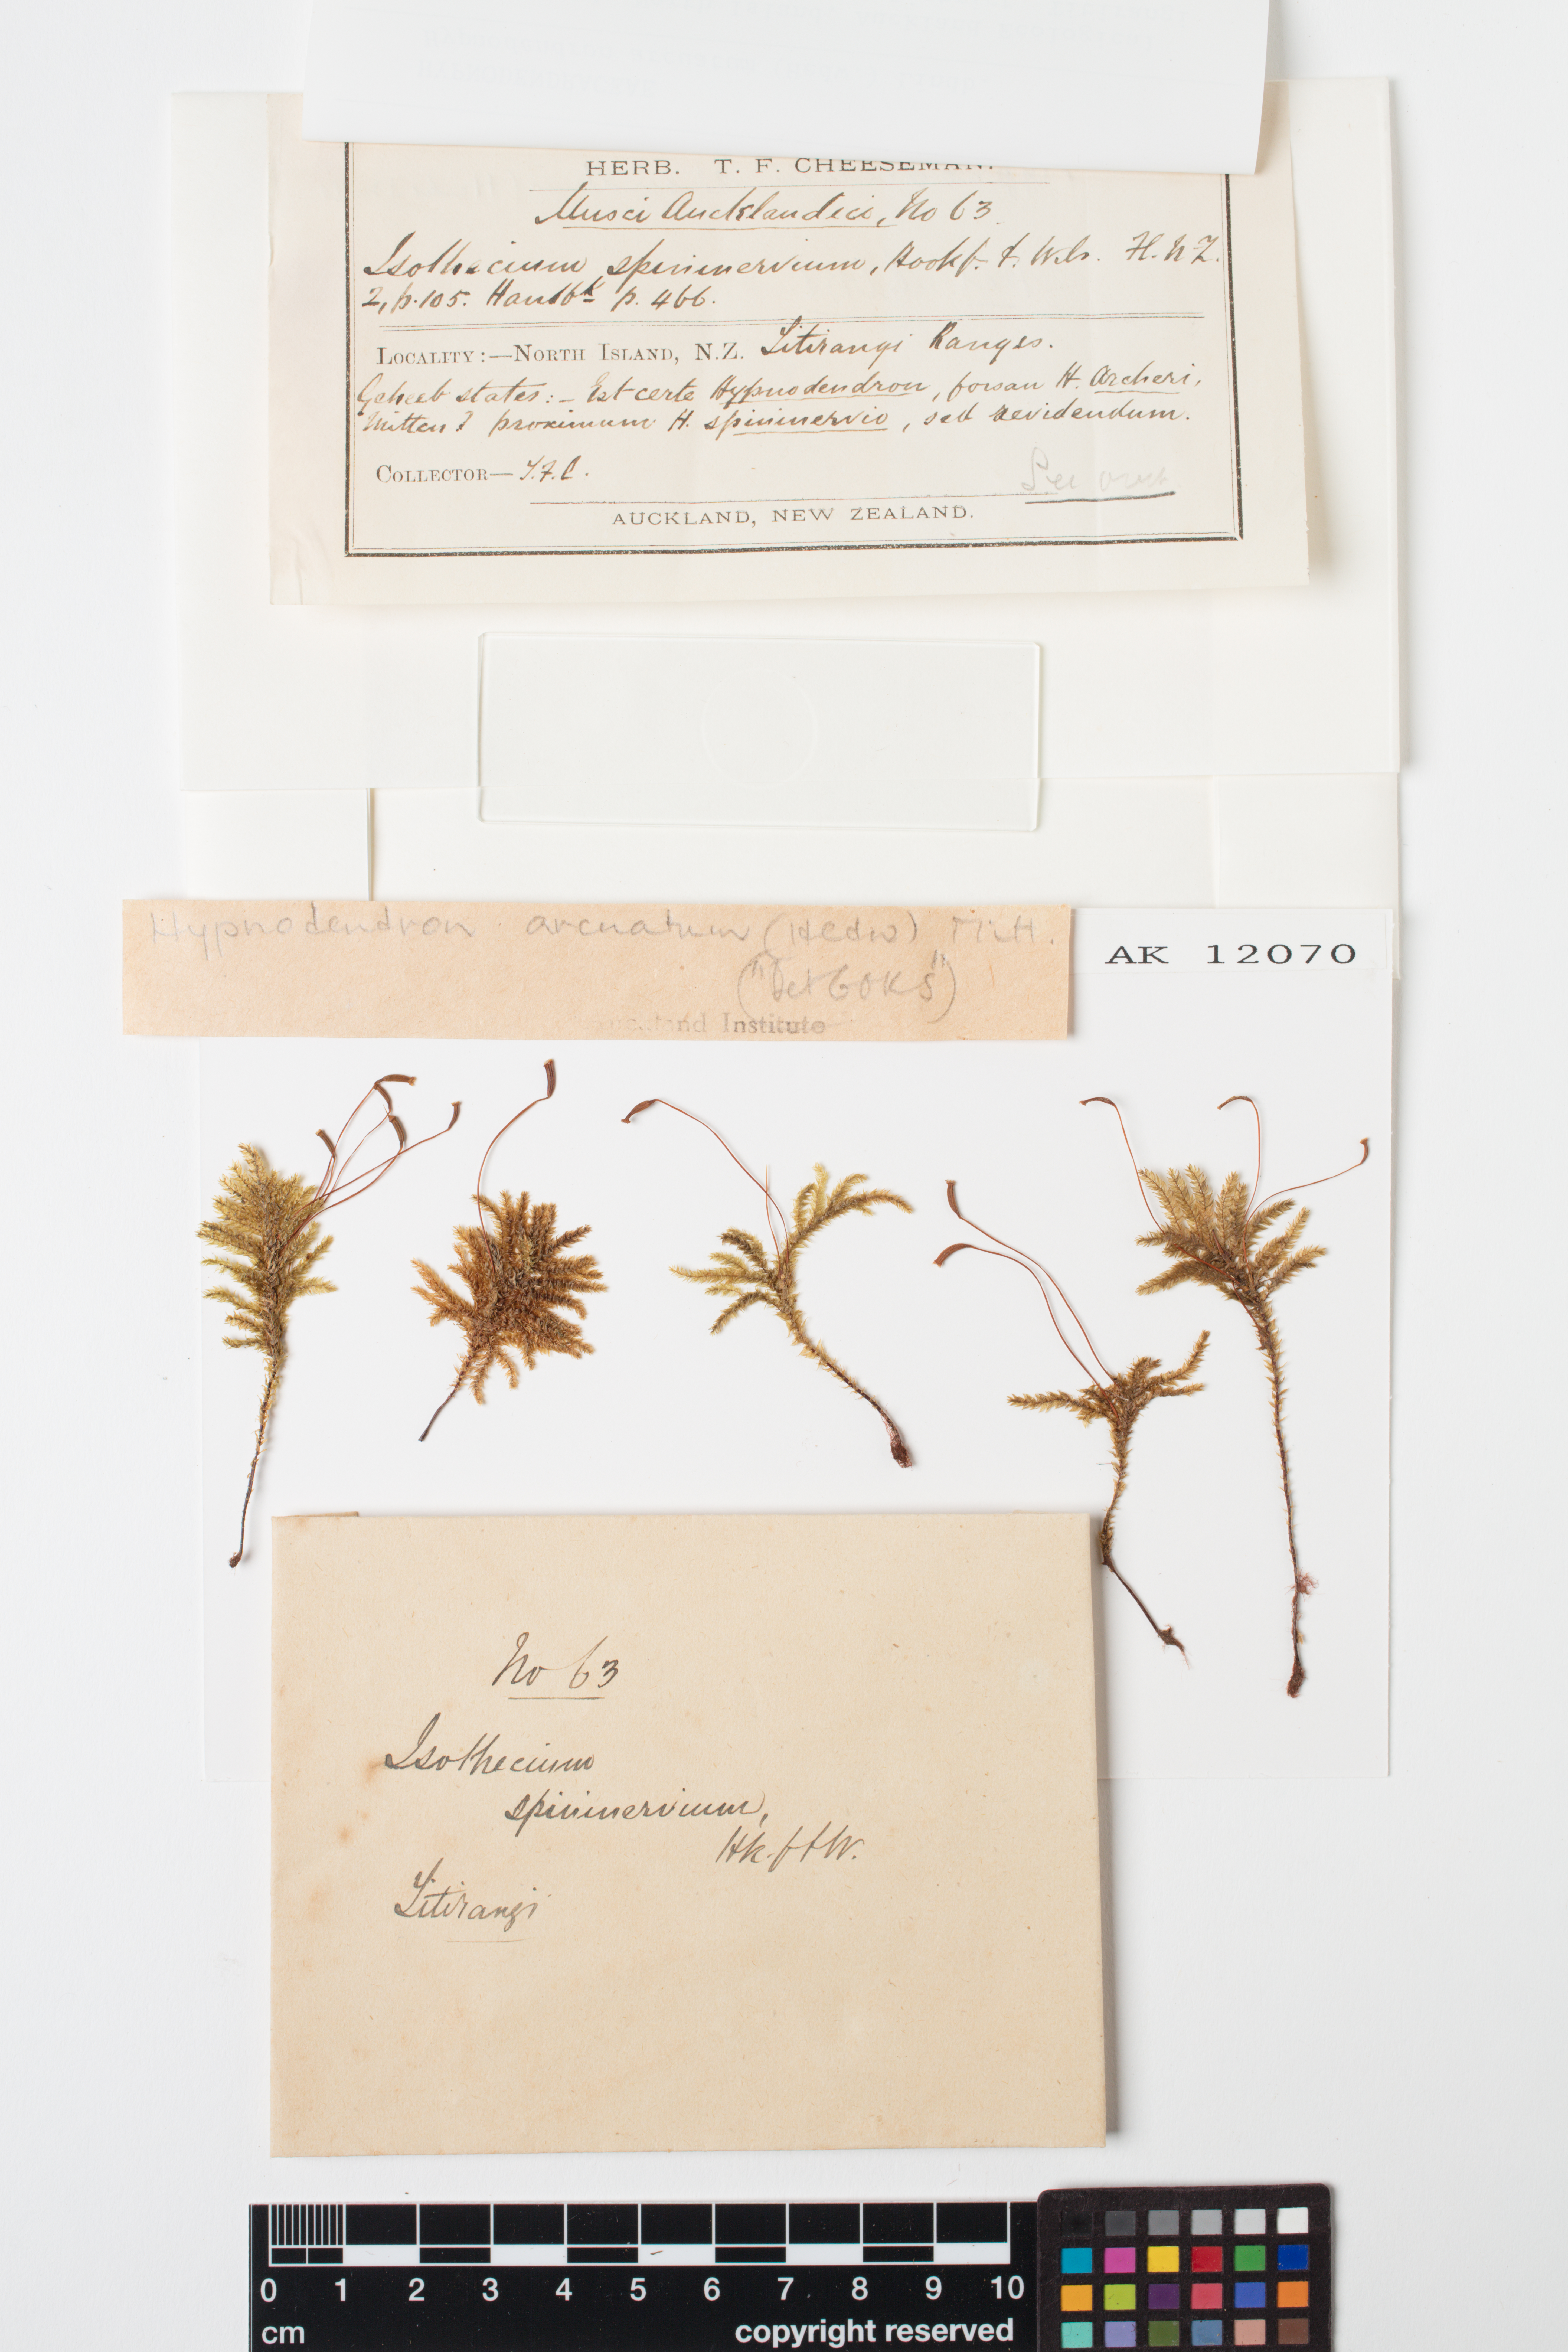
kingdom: Plantae
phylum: Bryophyta
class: Bryopsida
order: Hypnodendrales
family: Spiridentaceae
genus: Hypnodendron
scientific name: Hypnodendron arcuatum
